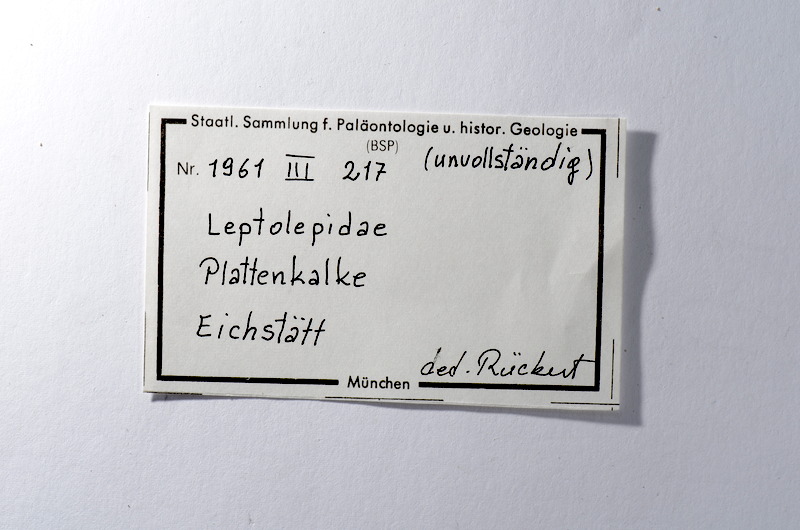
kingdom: Animalia
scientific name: Animalia
